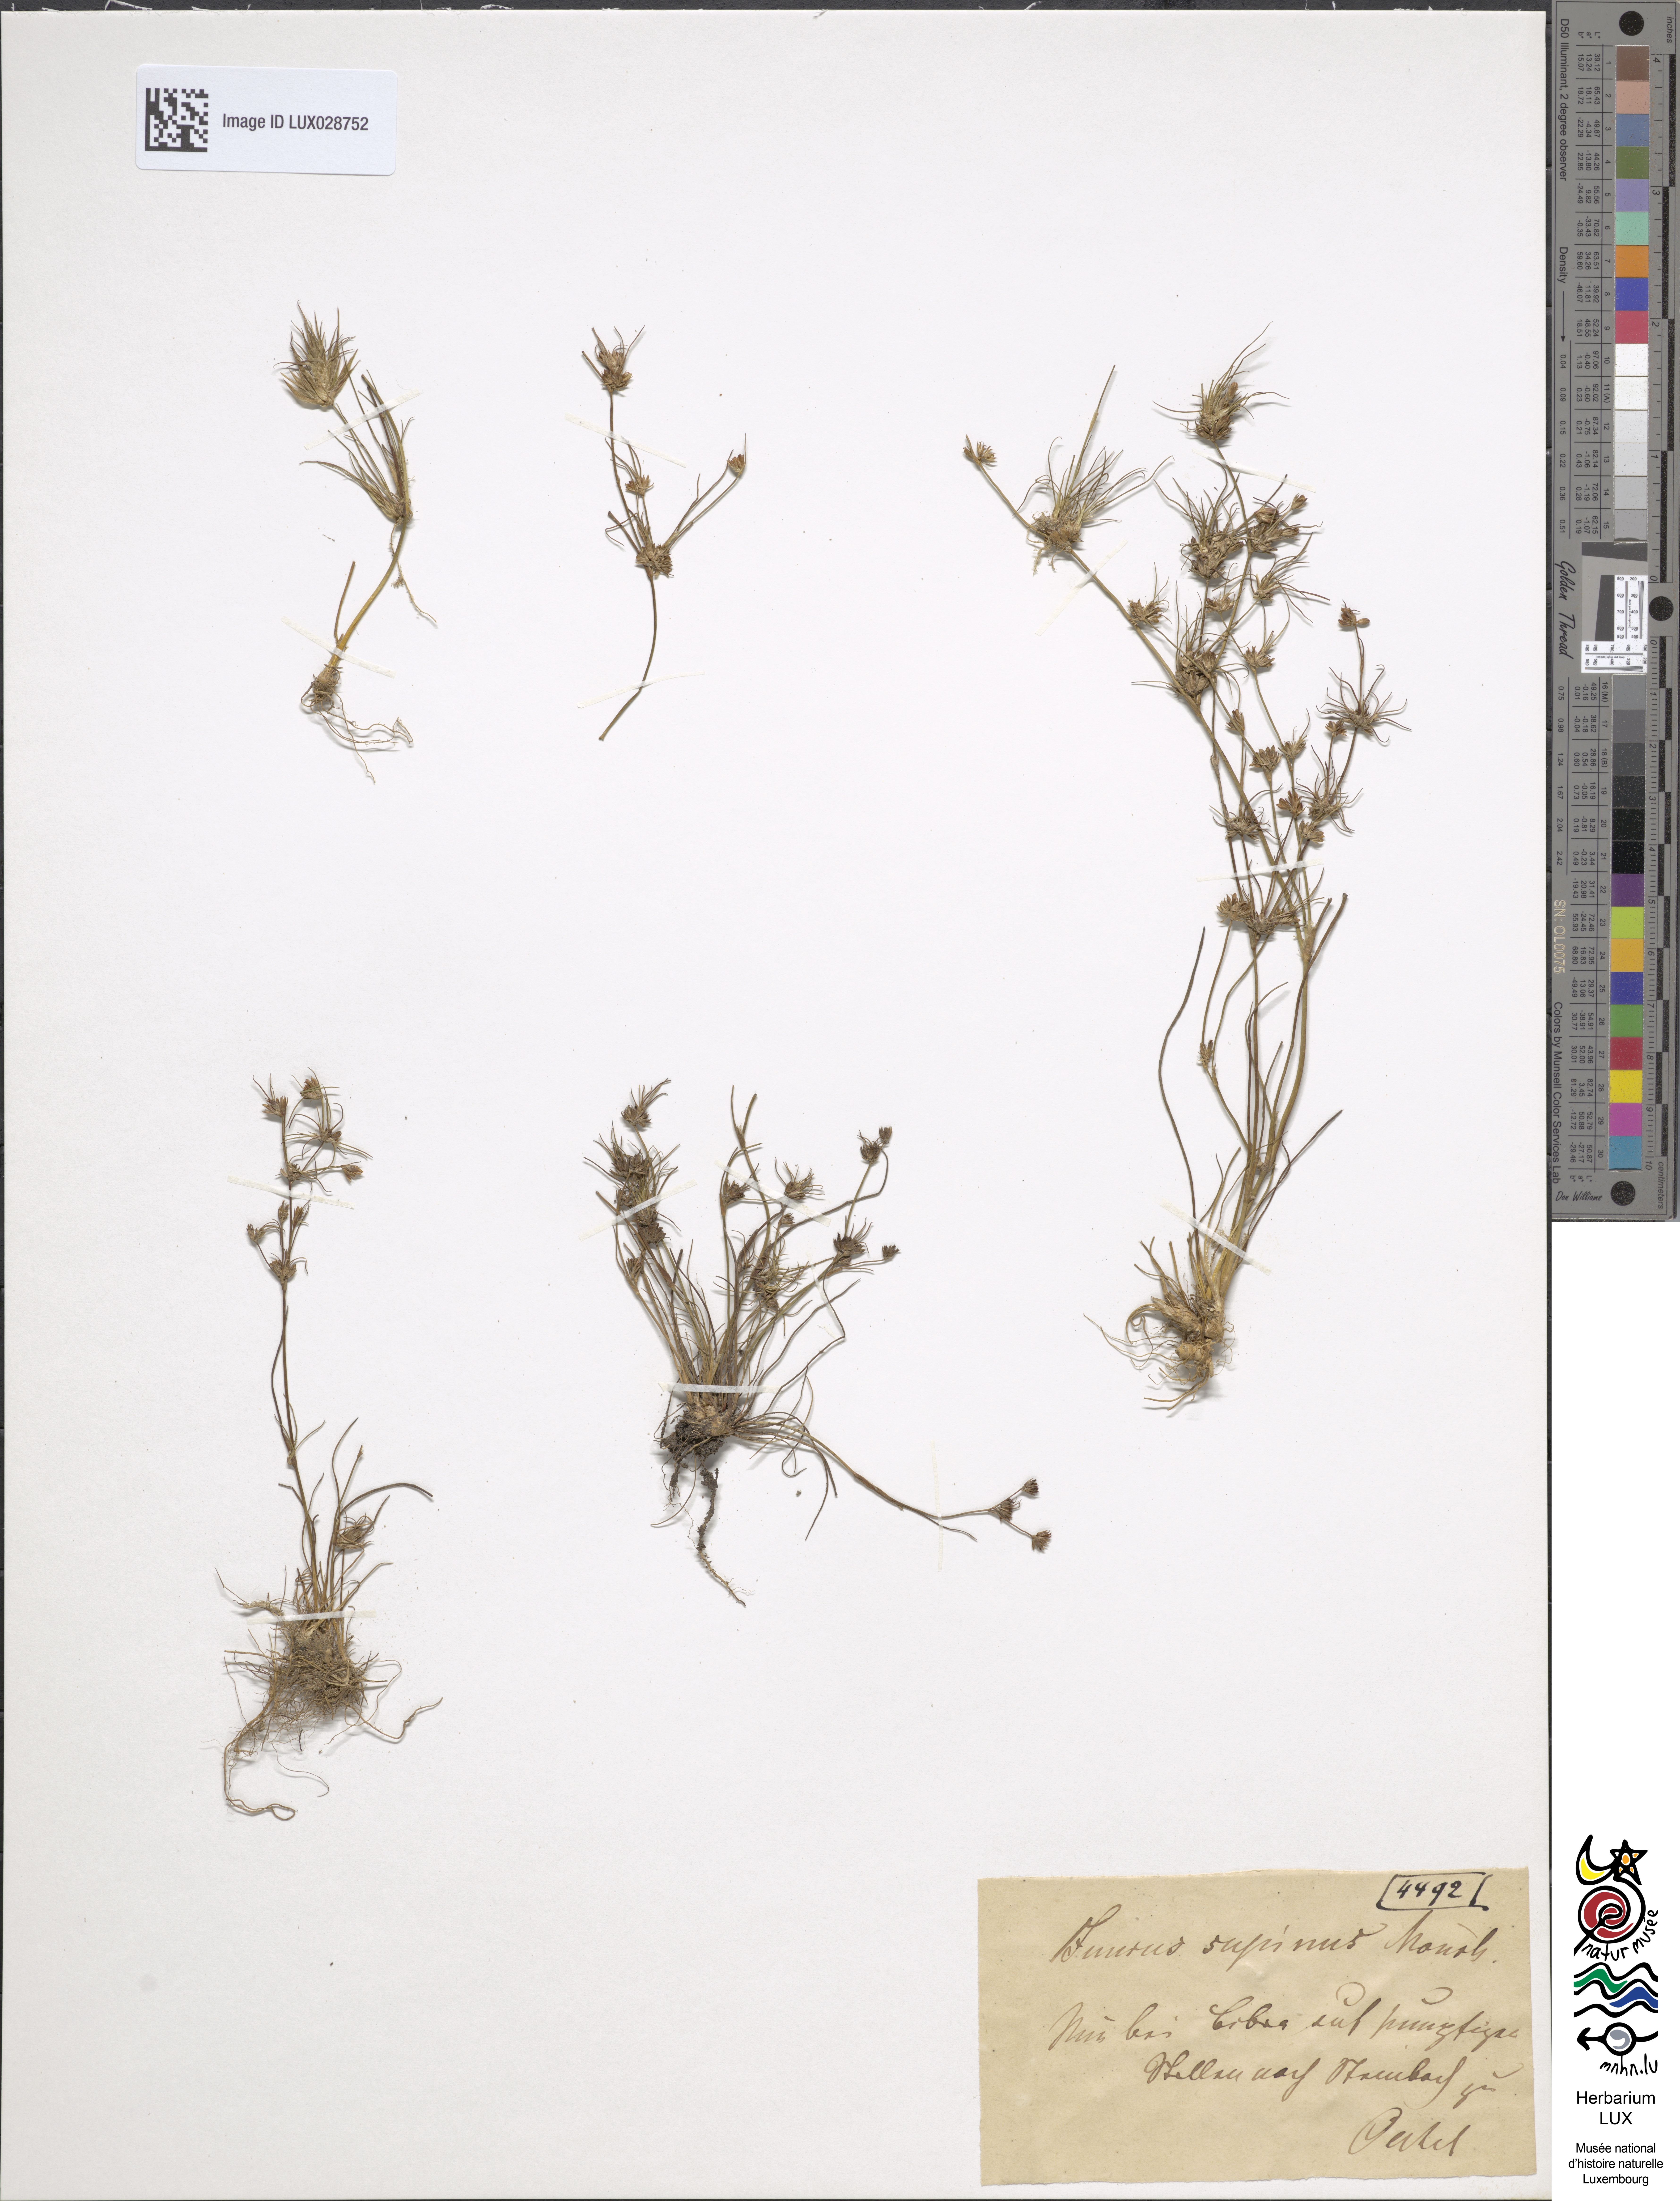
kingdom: Plantae
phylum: Tracheophyta
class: Liliopsida
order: Poales
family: Juncaceae
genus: Juncus
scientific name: Juncus bulbosus
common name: Bulbous rush
